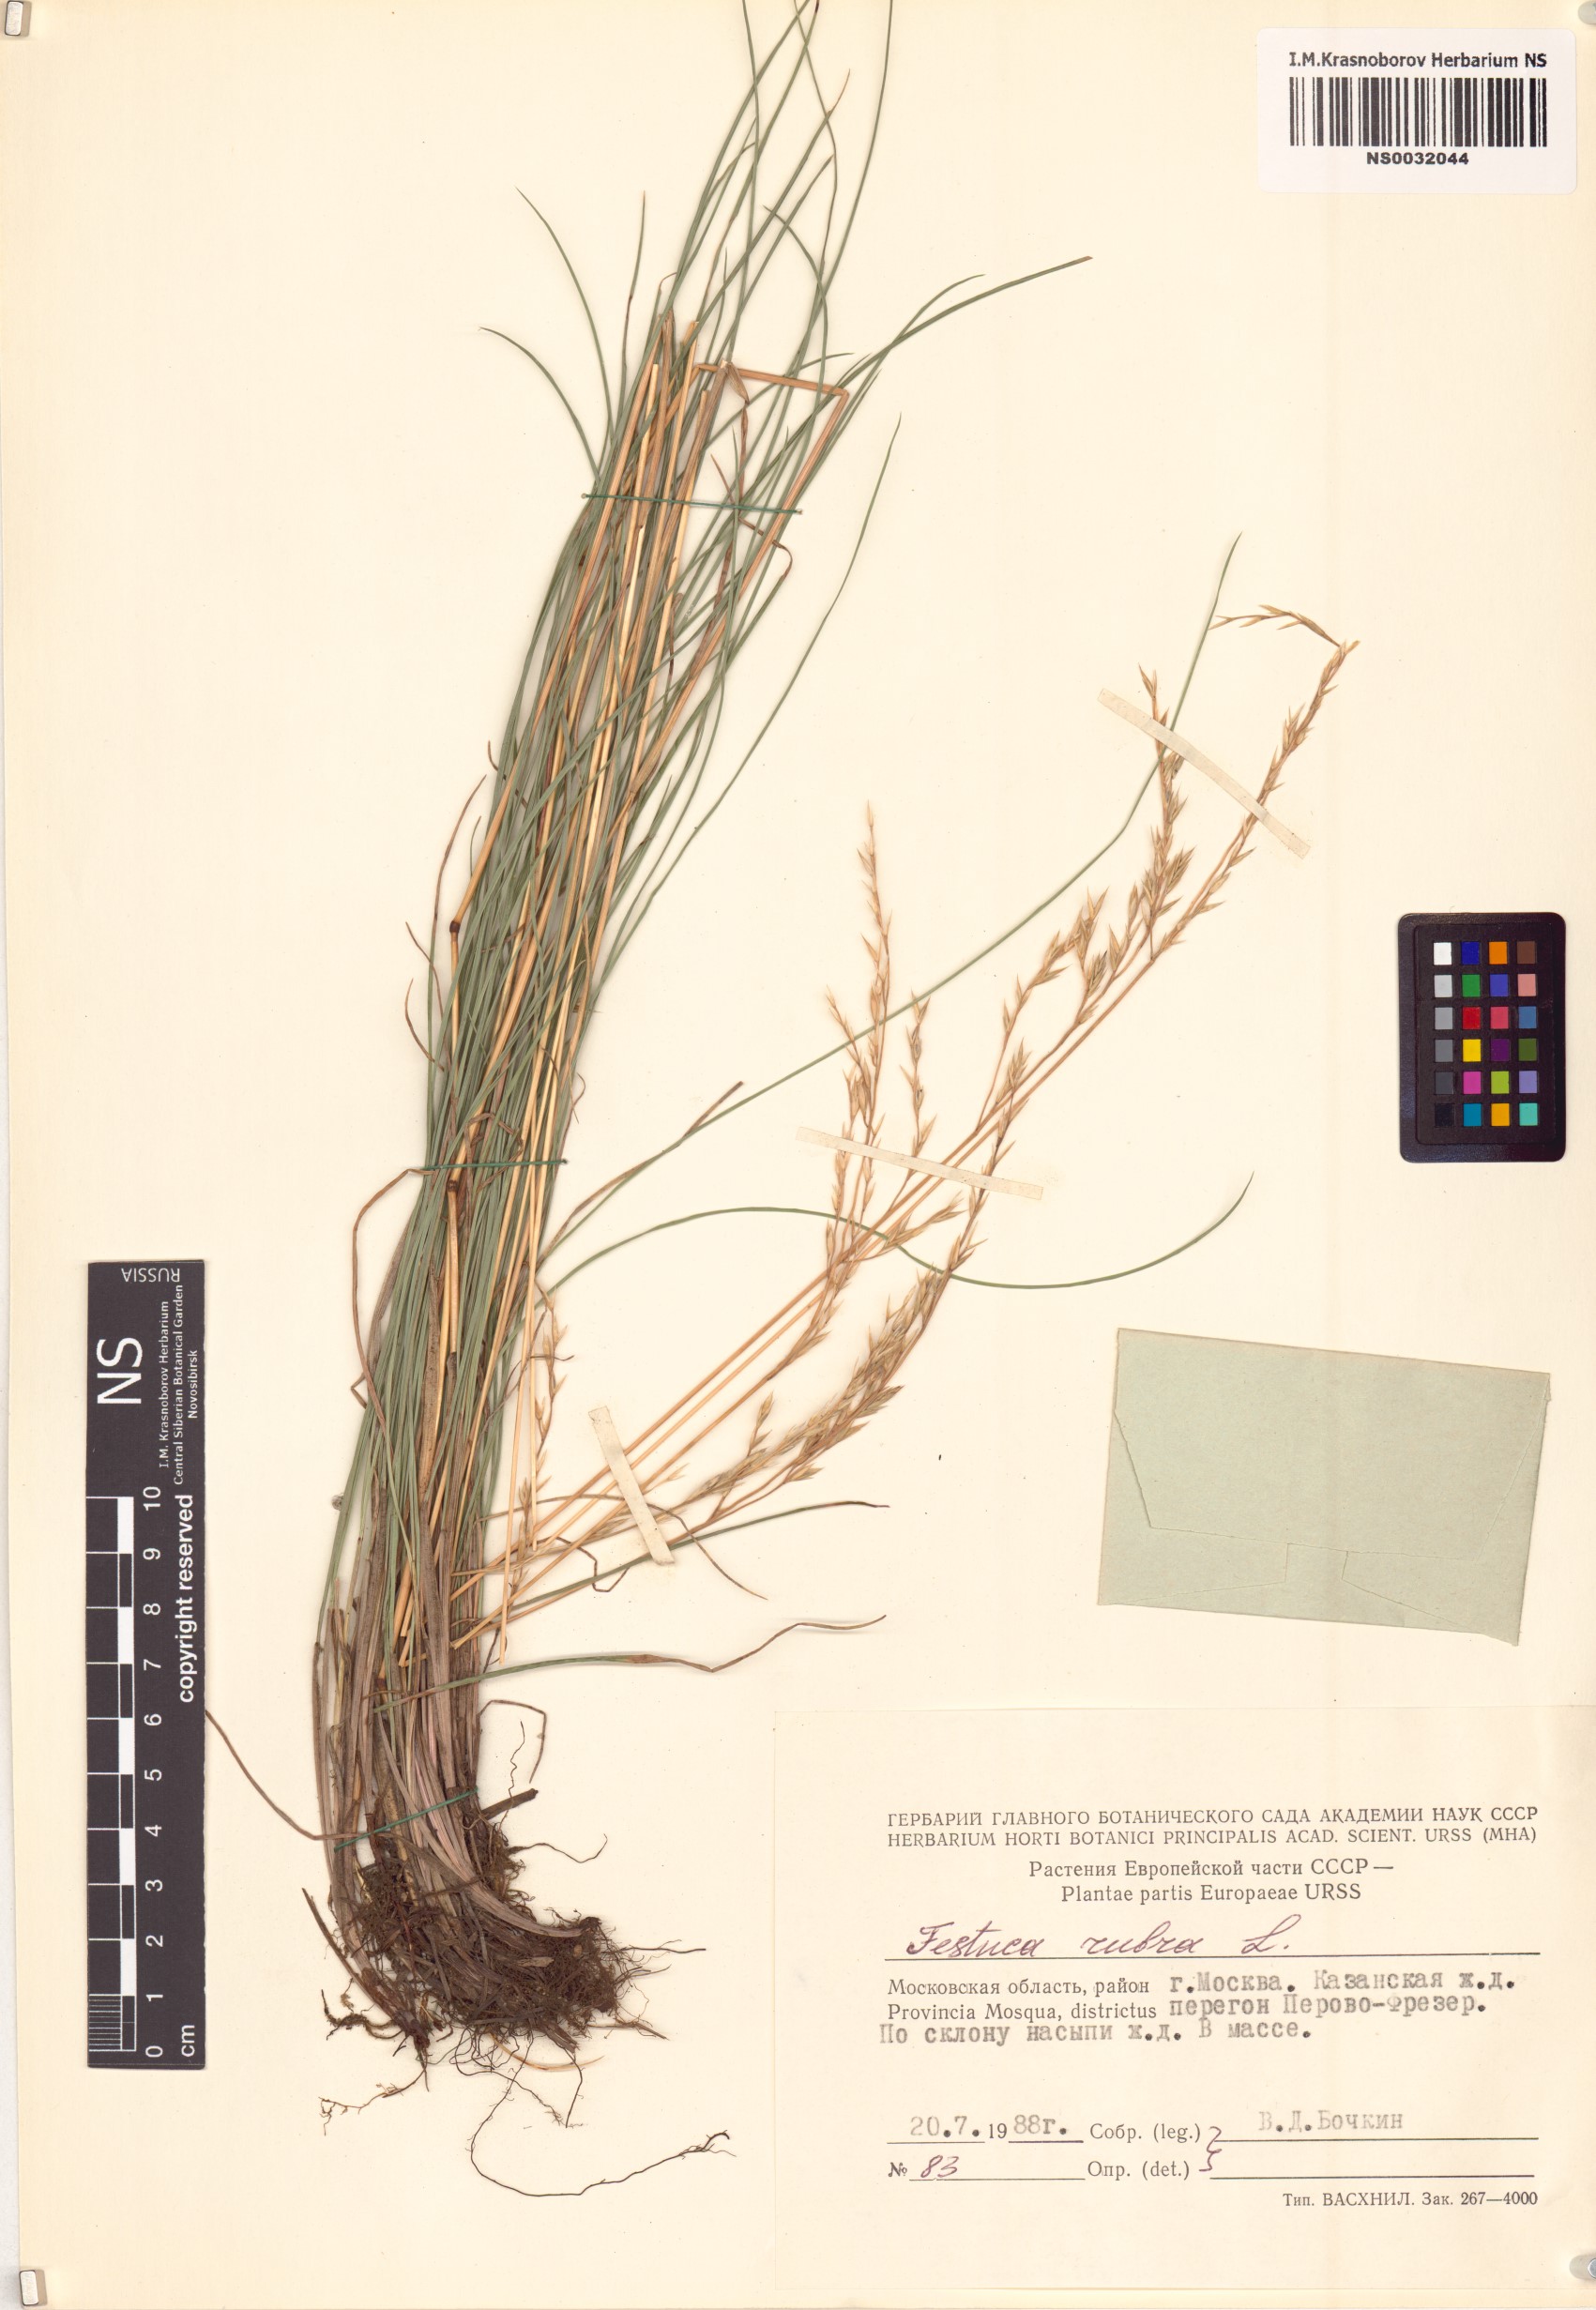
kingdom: Plantae
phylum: Tracheophyta
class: Liliopsida
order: Poales
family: Poaceae
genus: Festuca
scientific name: Festuca rubra
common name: Red fescue
